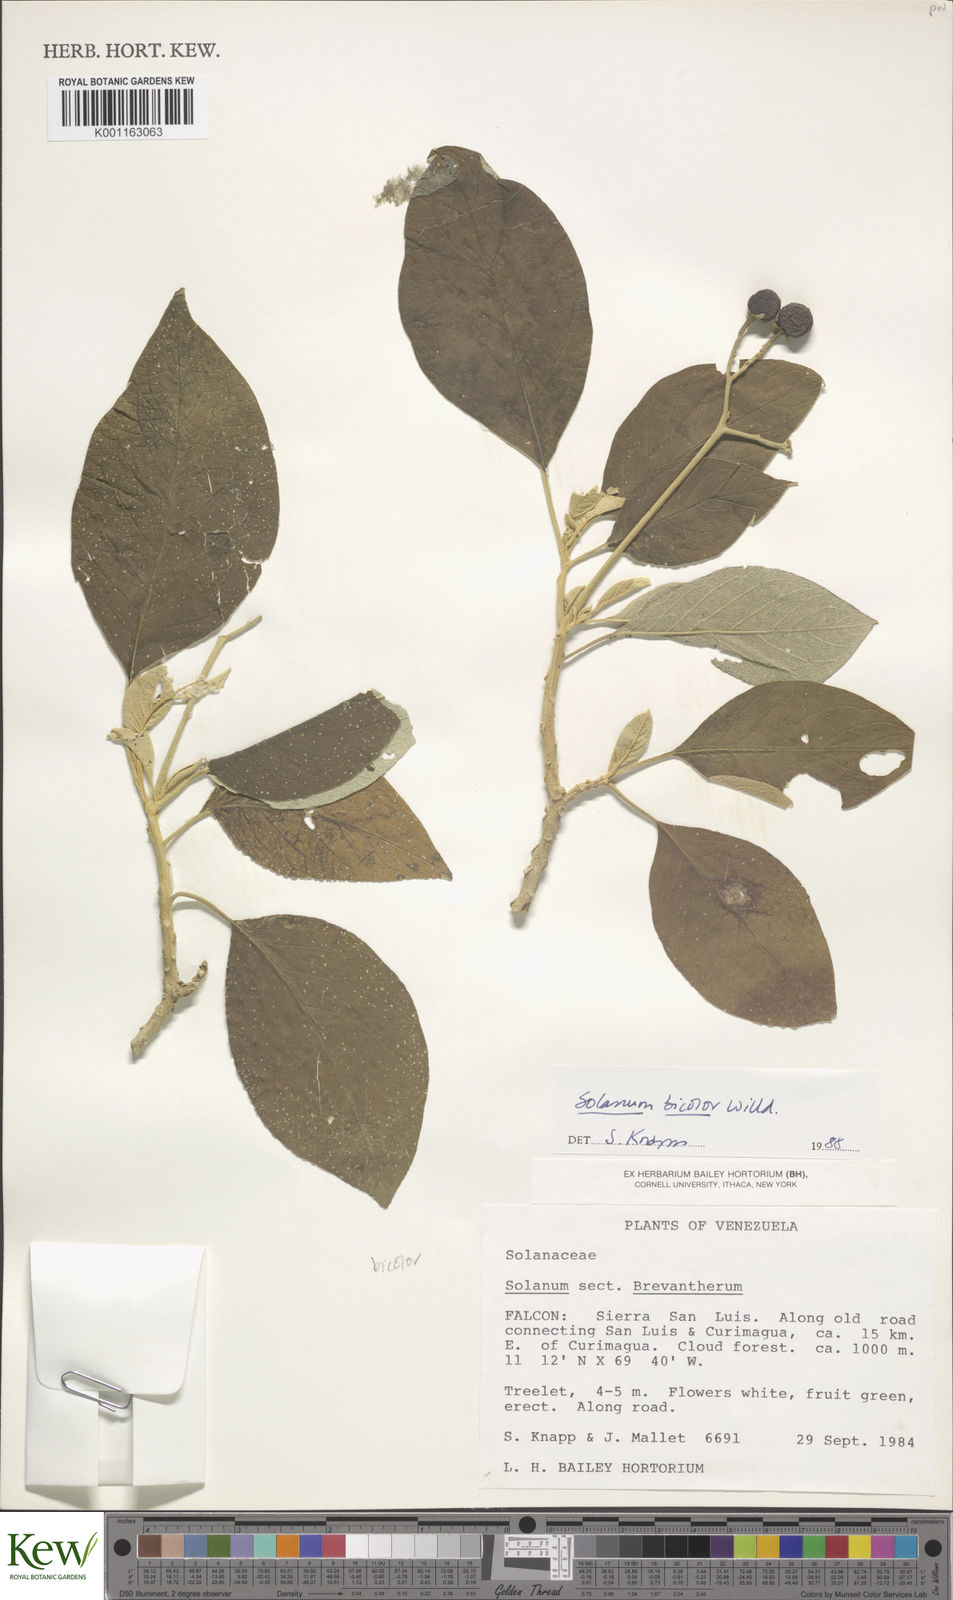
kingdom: Plantae
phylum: Tracheophyta
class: Magnoliopsida
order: Solanales
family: Solanaceae
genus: Solanum
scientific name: Solanum bicolor
